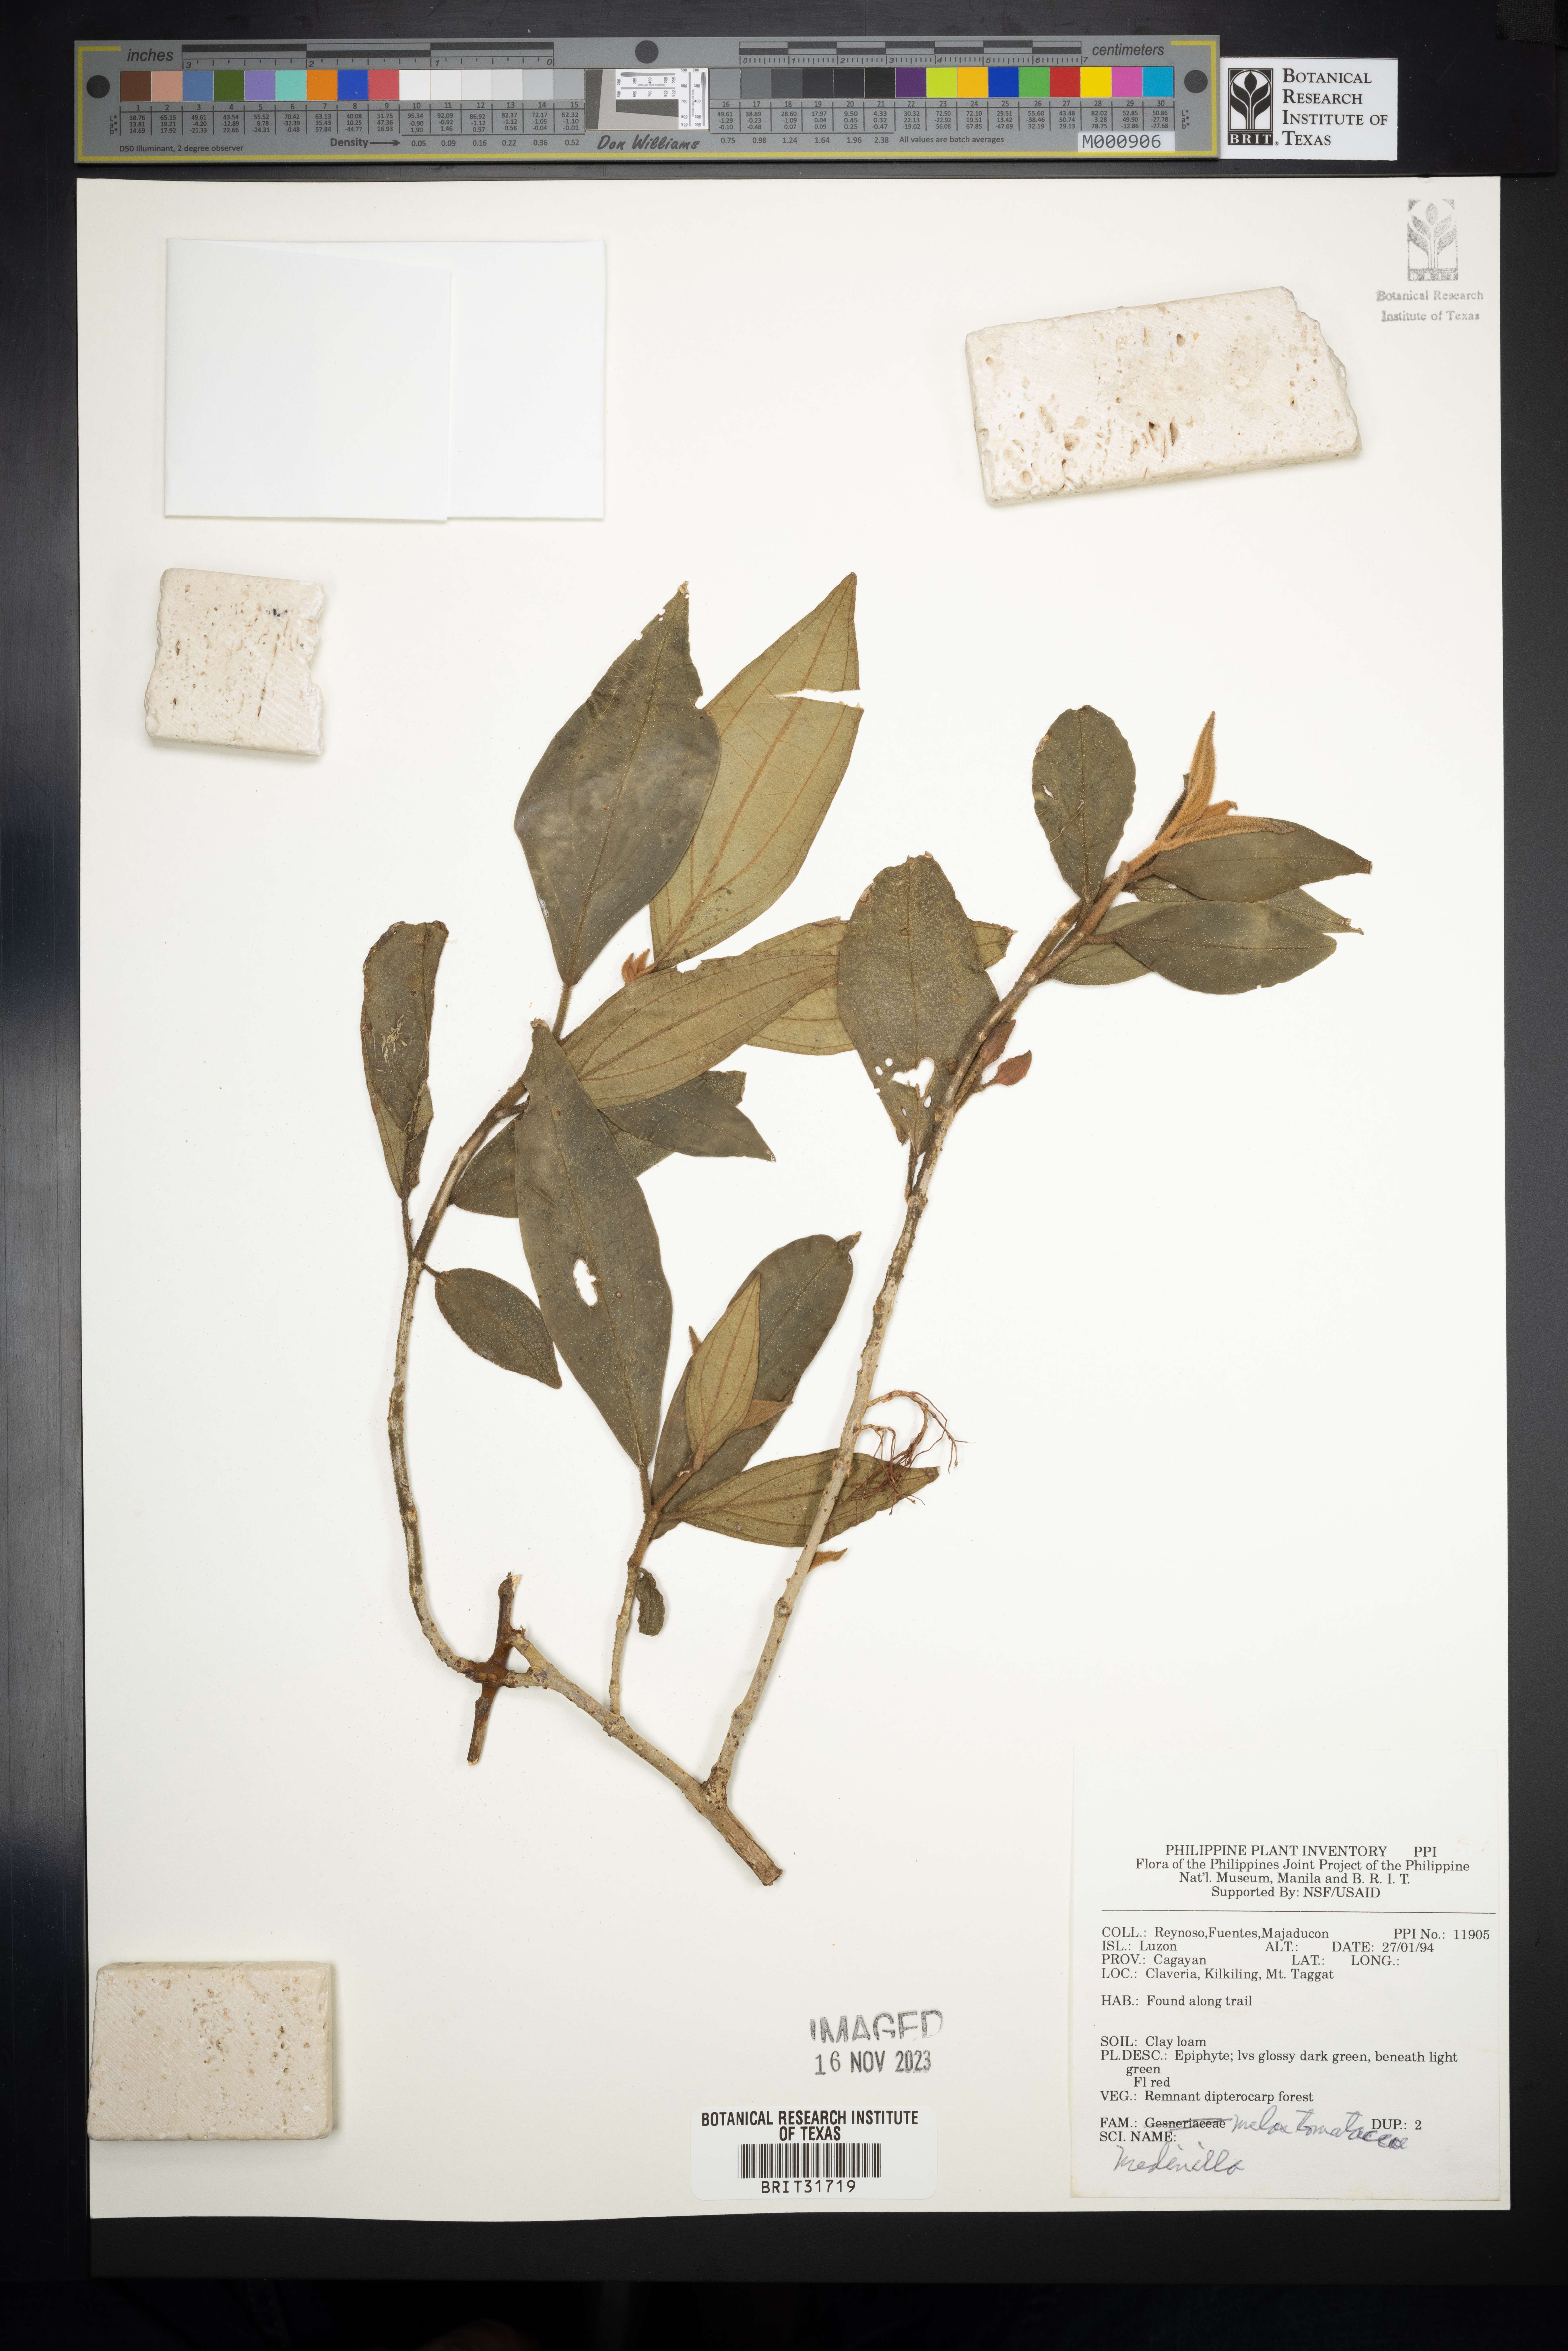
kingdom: Plantae
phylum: Tracheophyta
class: Magnoliopsida
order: Myrtales
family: Melastomataceae
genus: Medinilla
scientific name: Medinilla
